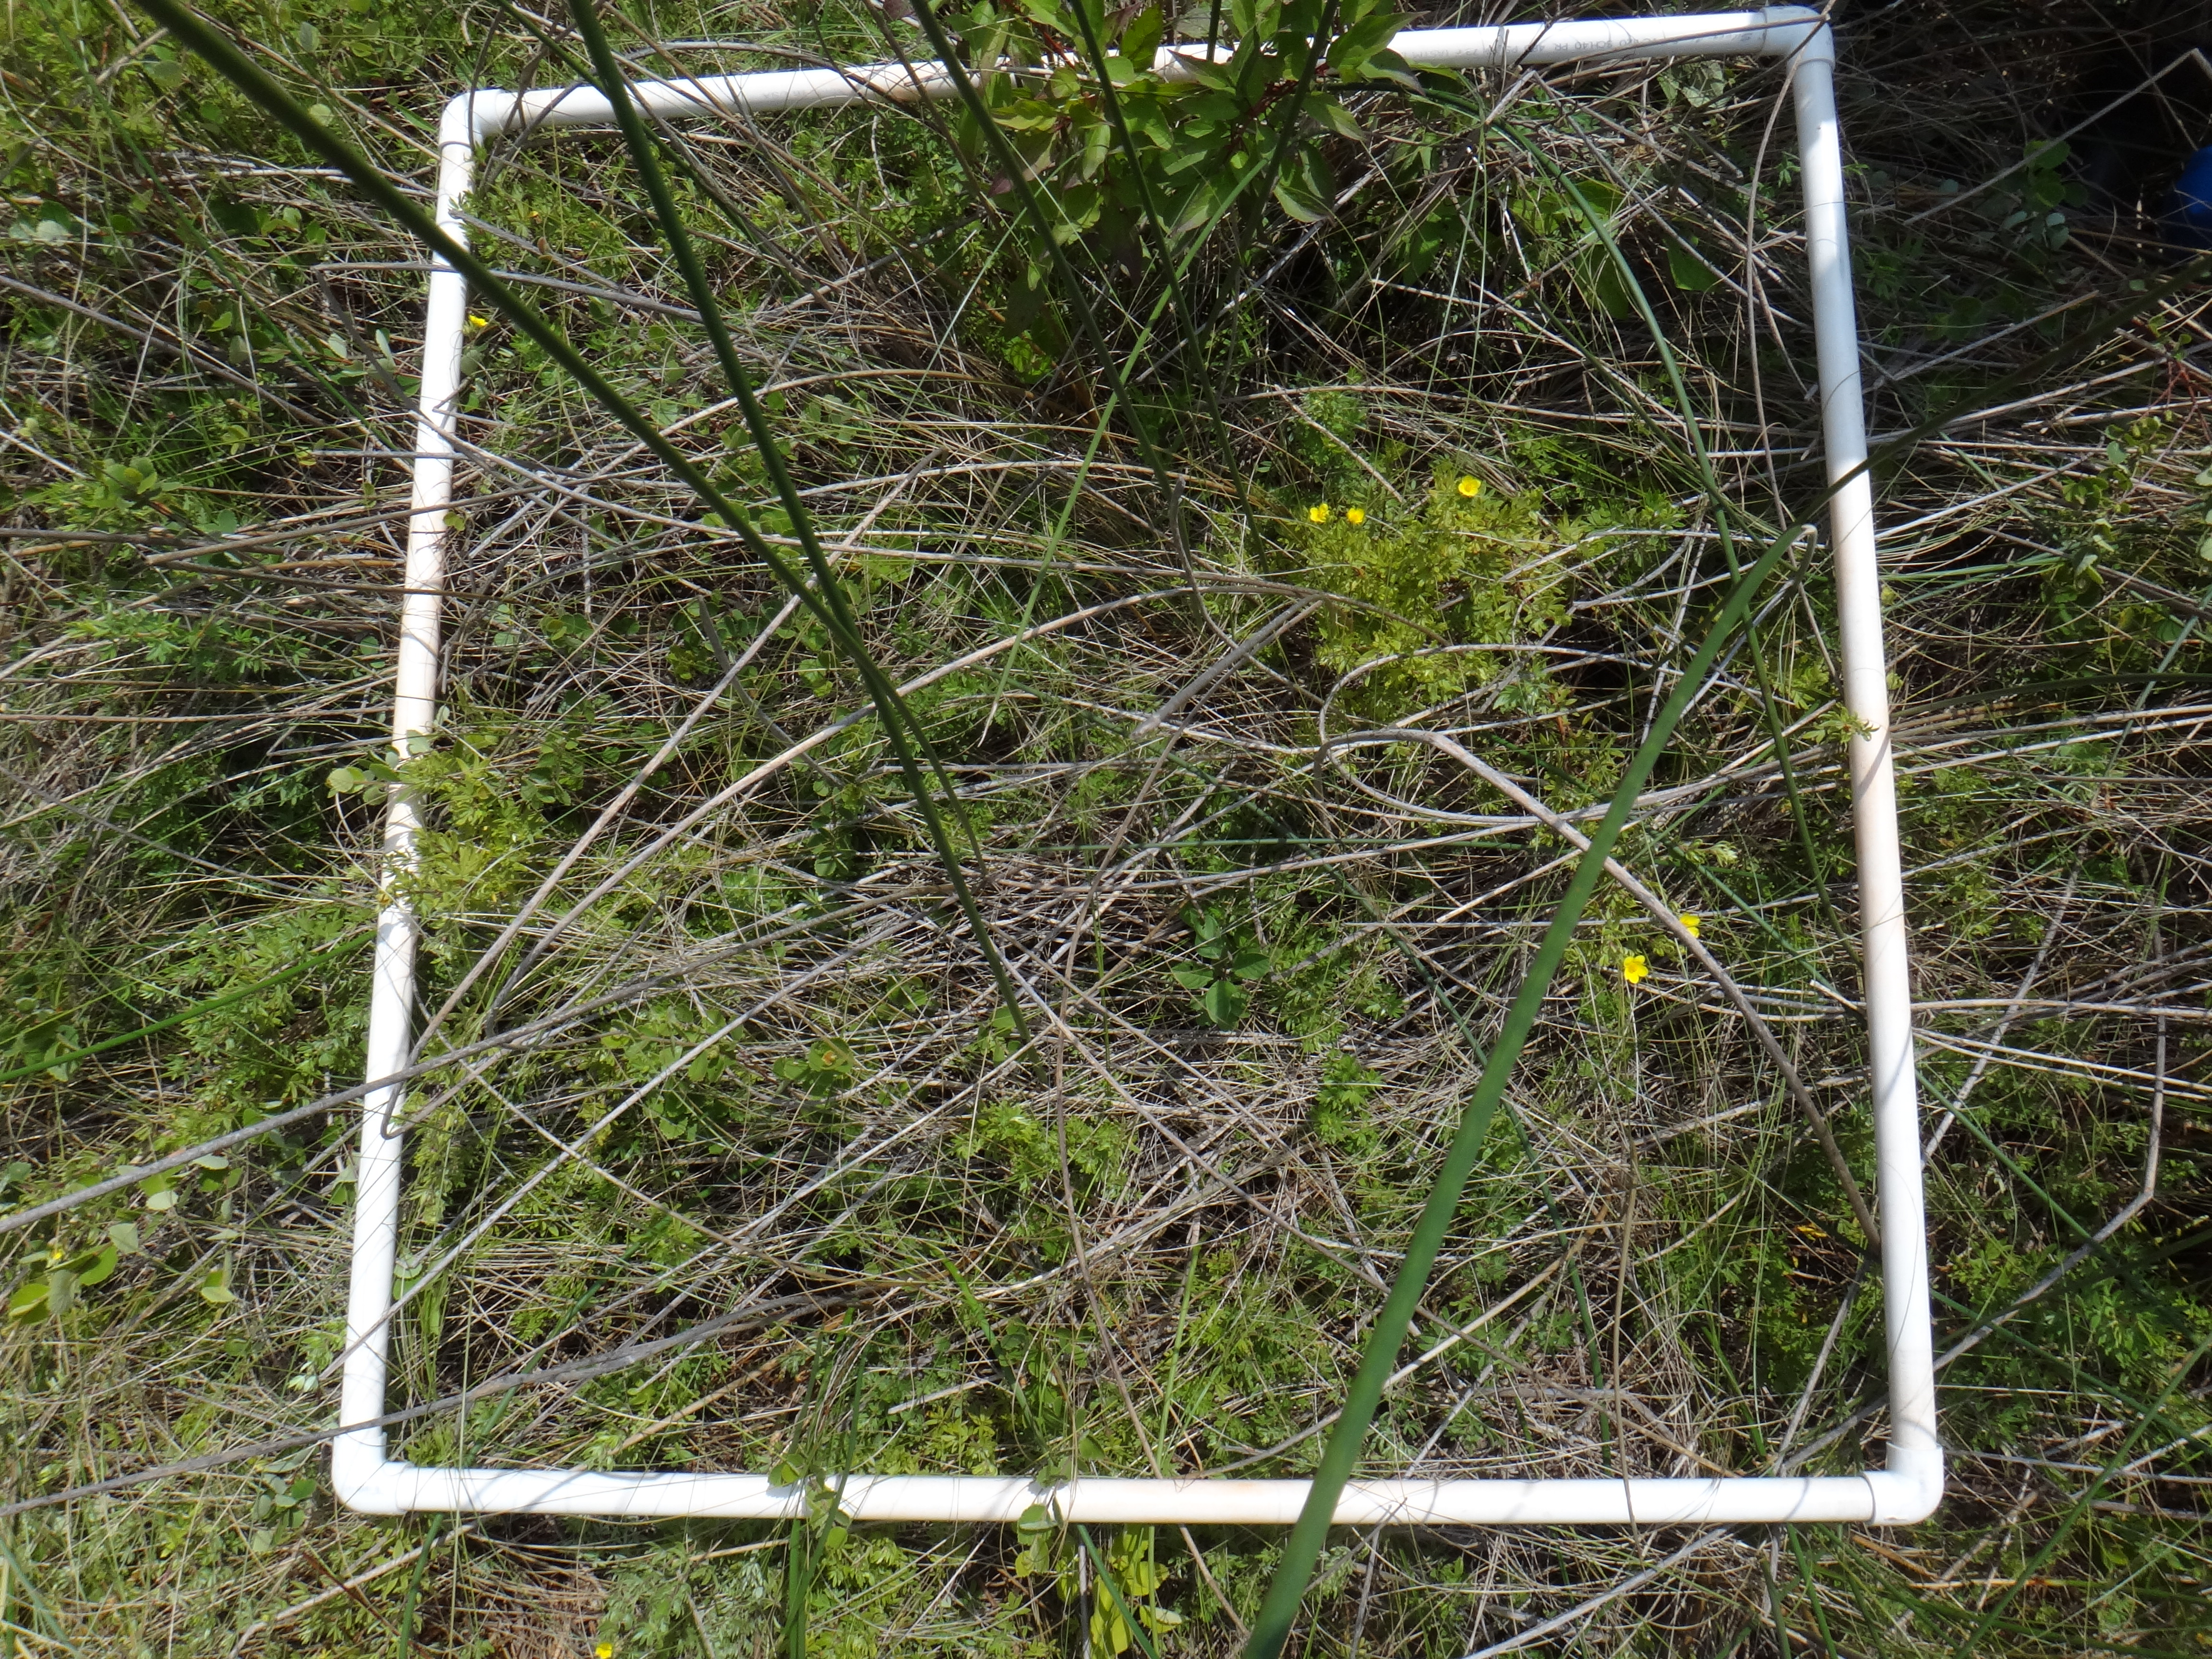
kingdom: Plantae
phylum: Tracheophyta
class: Magnoliopsida
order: Cornales
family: Cornaceae
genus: Cornus
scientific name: Cornus sericea
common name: Red-osier dogwood
